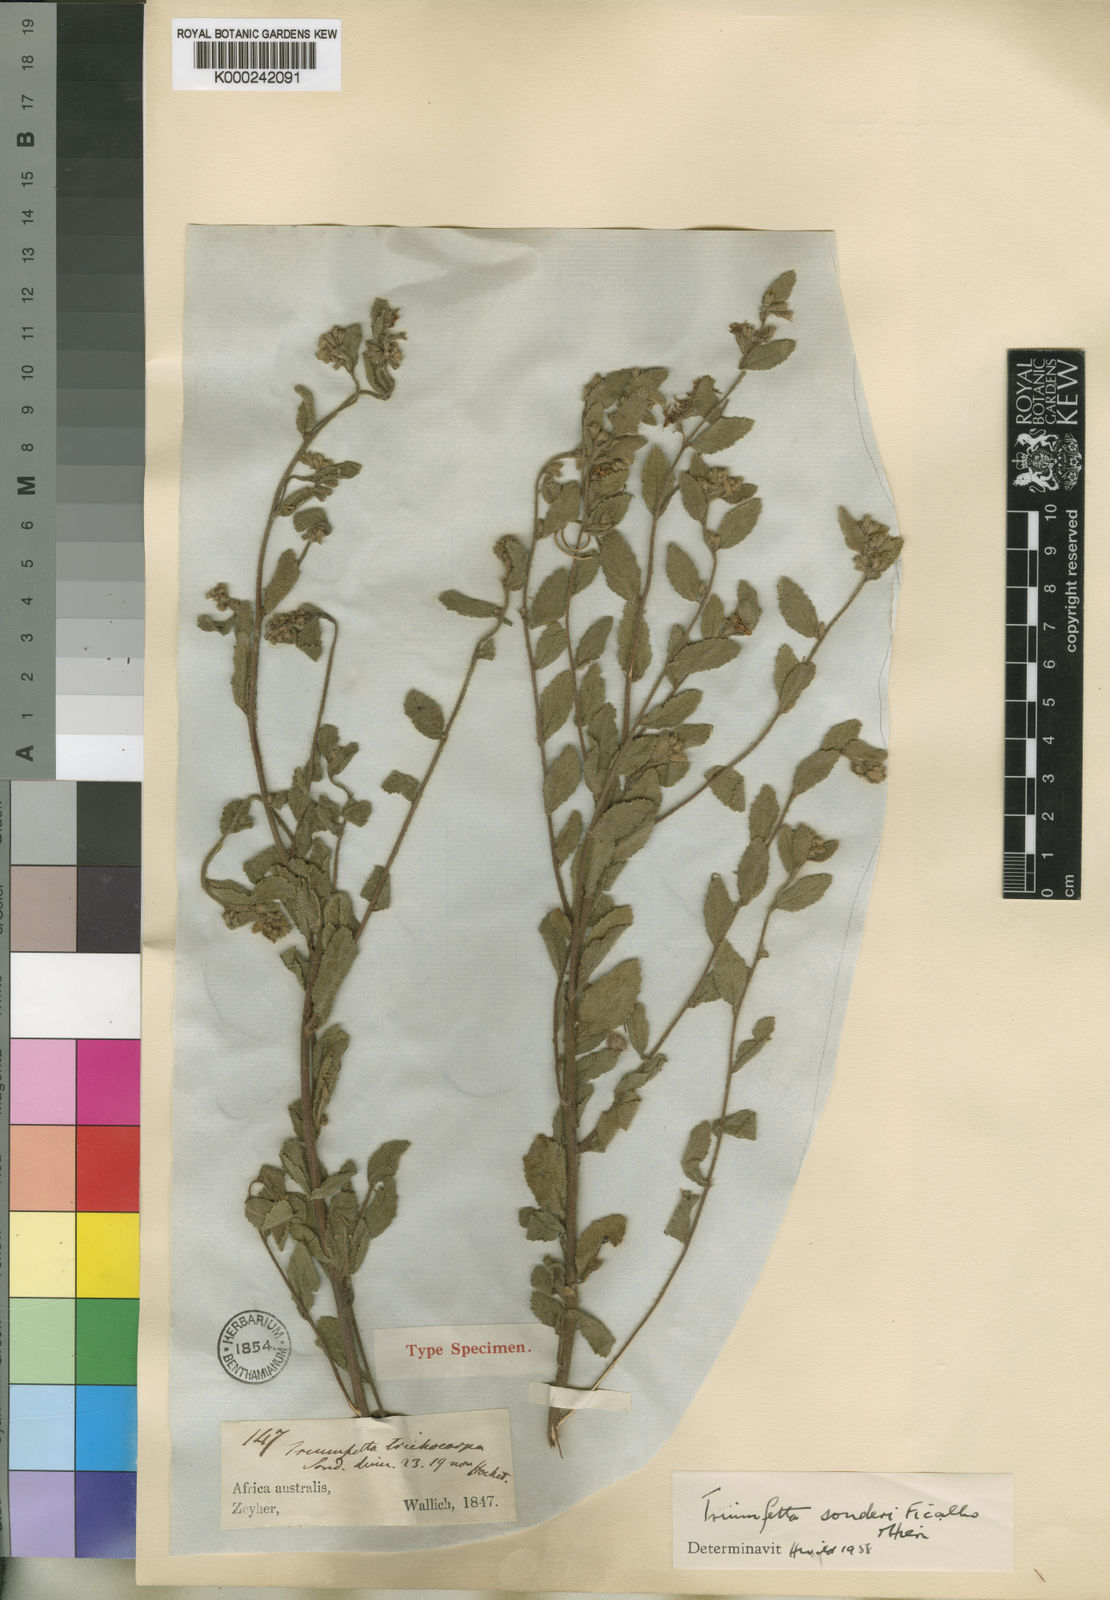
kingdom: Plantae
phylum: Tracheophyta
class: Magnoliopsida
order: Malvales
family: Malvaceae
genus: Triumfetta
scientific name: Triumfetta sonderi
